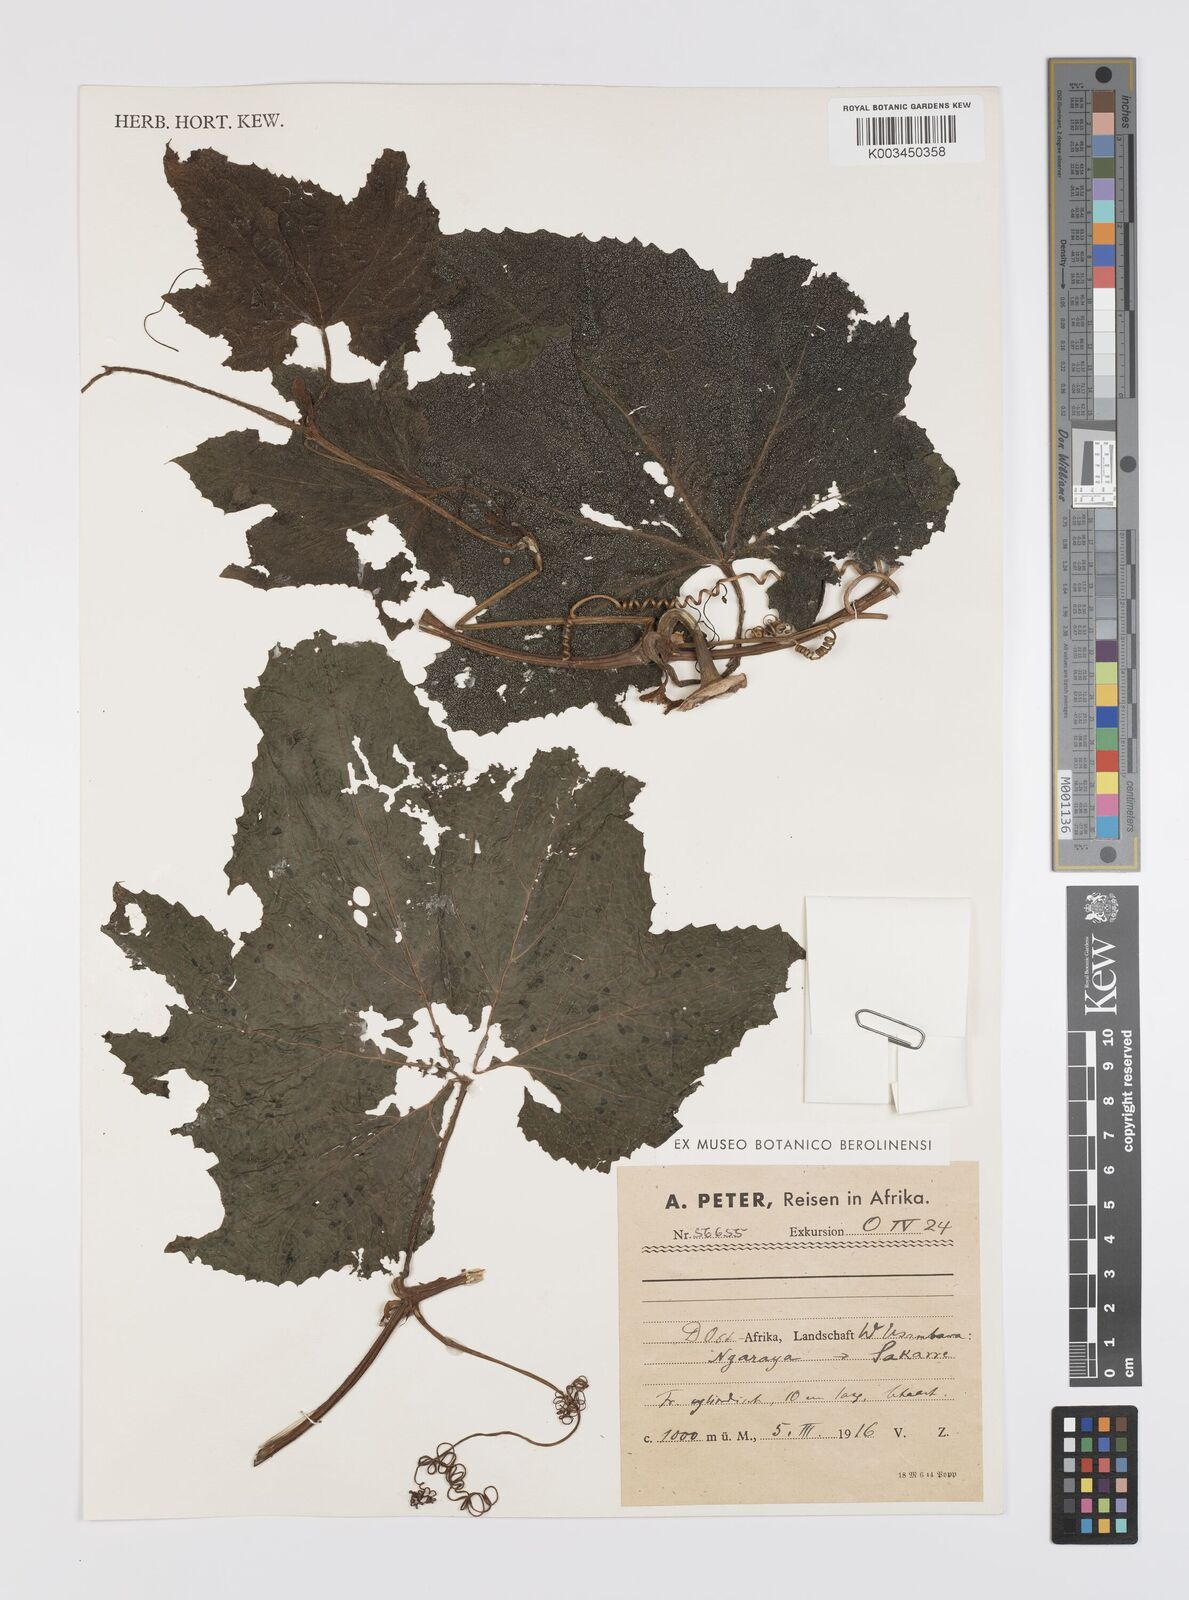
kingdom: Plantae
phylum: Tracheophyta
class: Magnoliopsida
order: Cucurbitales
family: Cucurbitaceae
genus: Peponium
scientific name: Peponium vogelii
